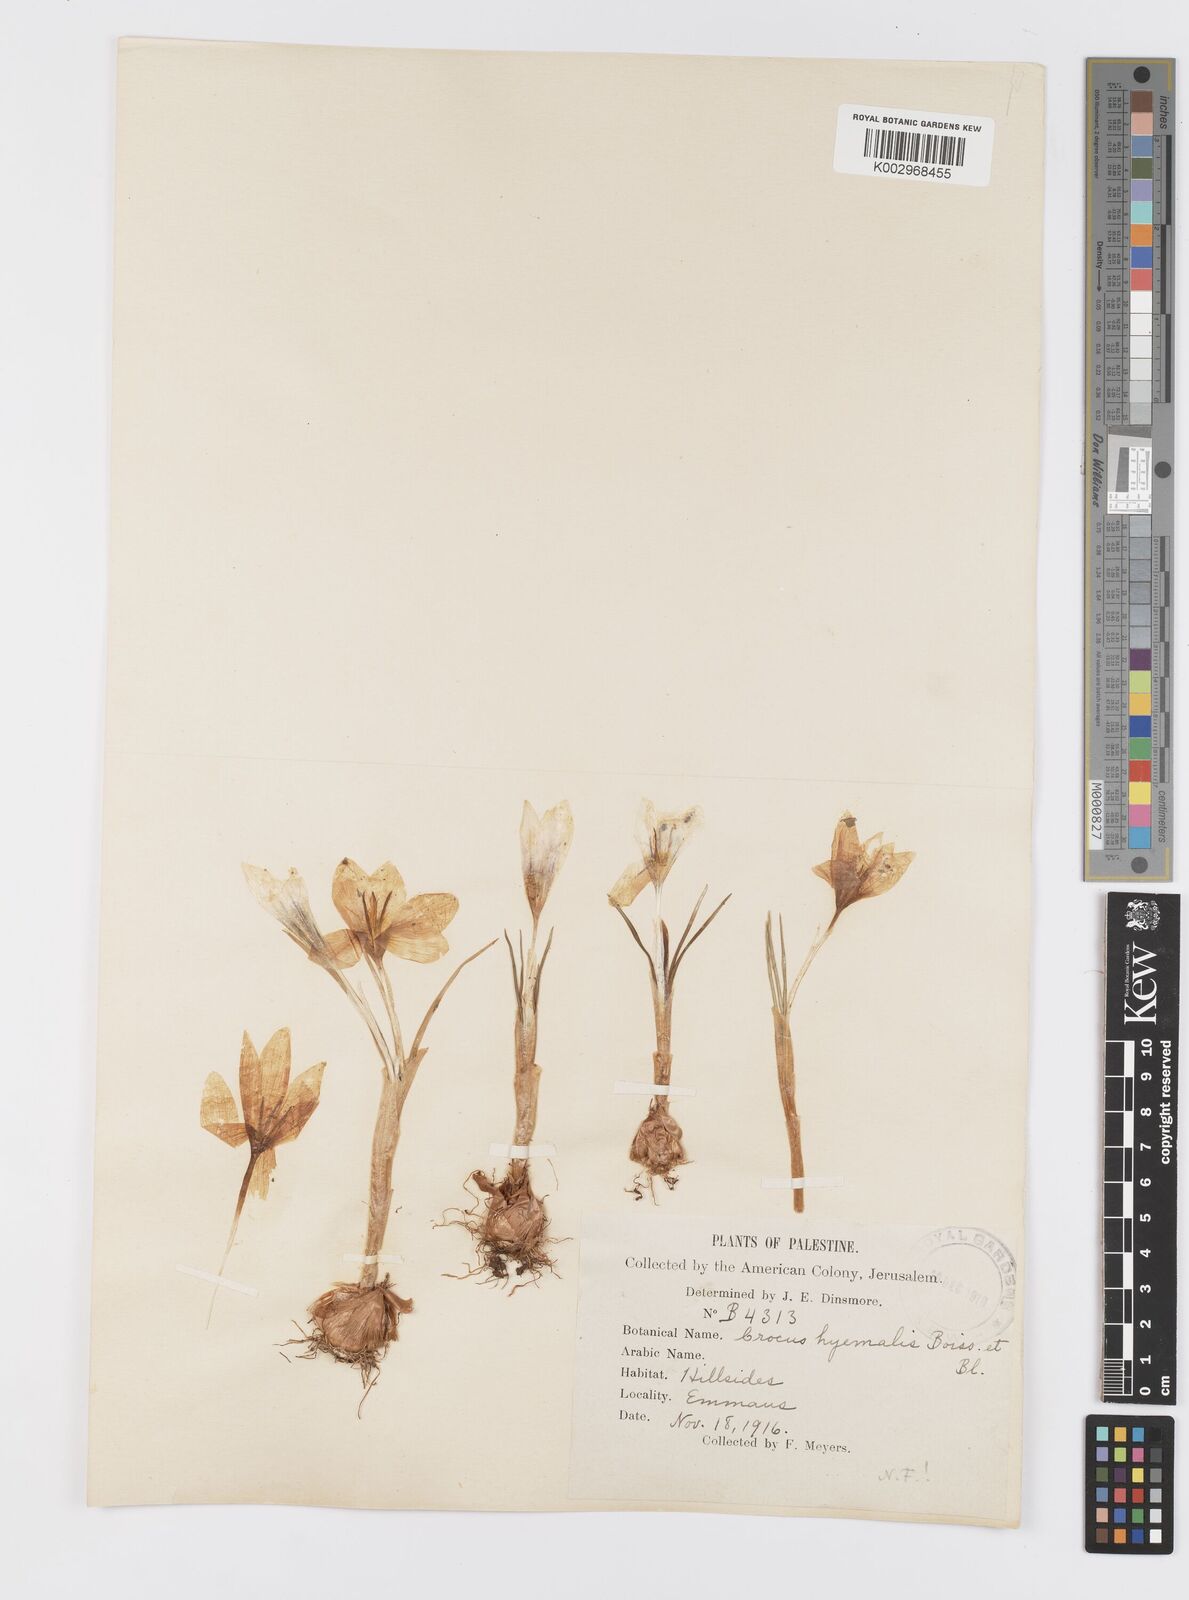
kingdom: Plantae
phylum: Tracheophyta
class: Liliopsida
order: Asparagales
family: Iridaceae
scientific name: Iridaceae
